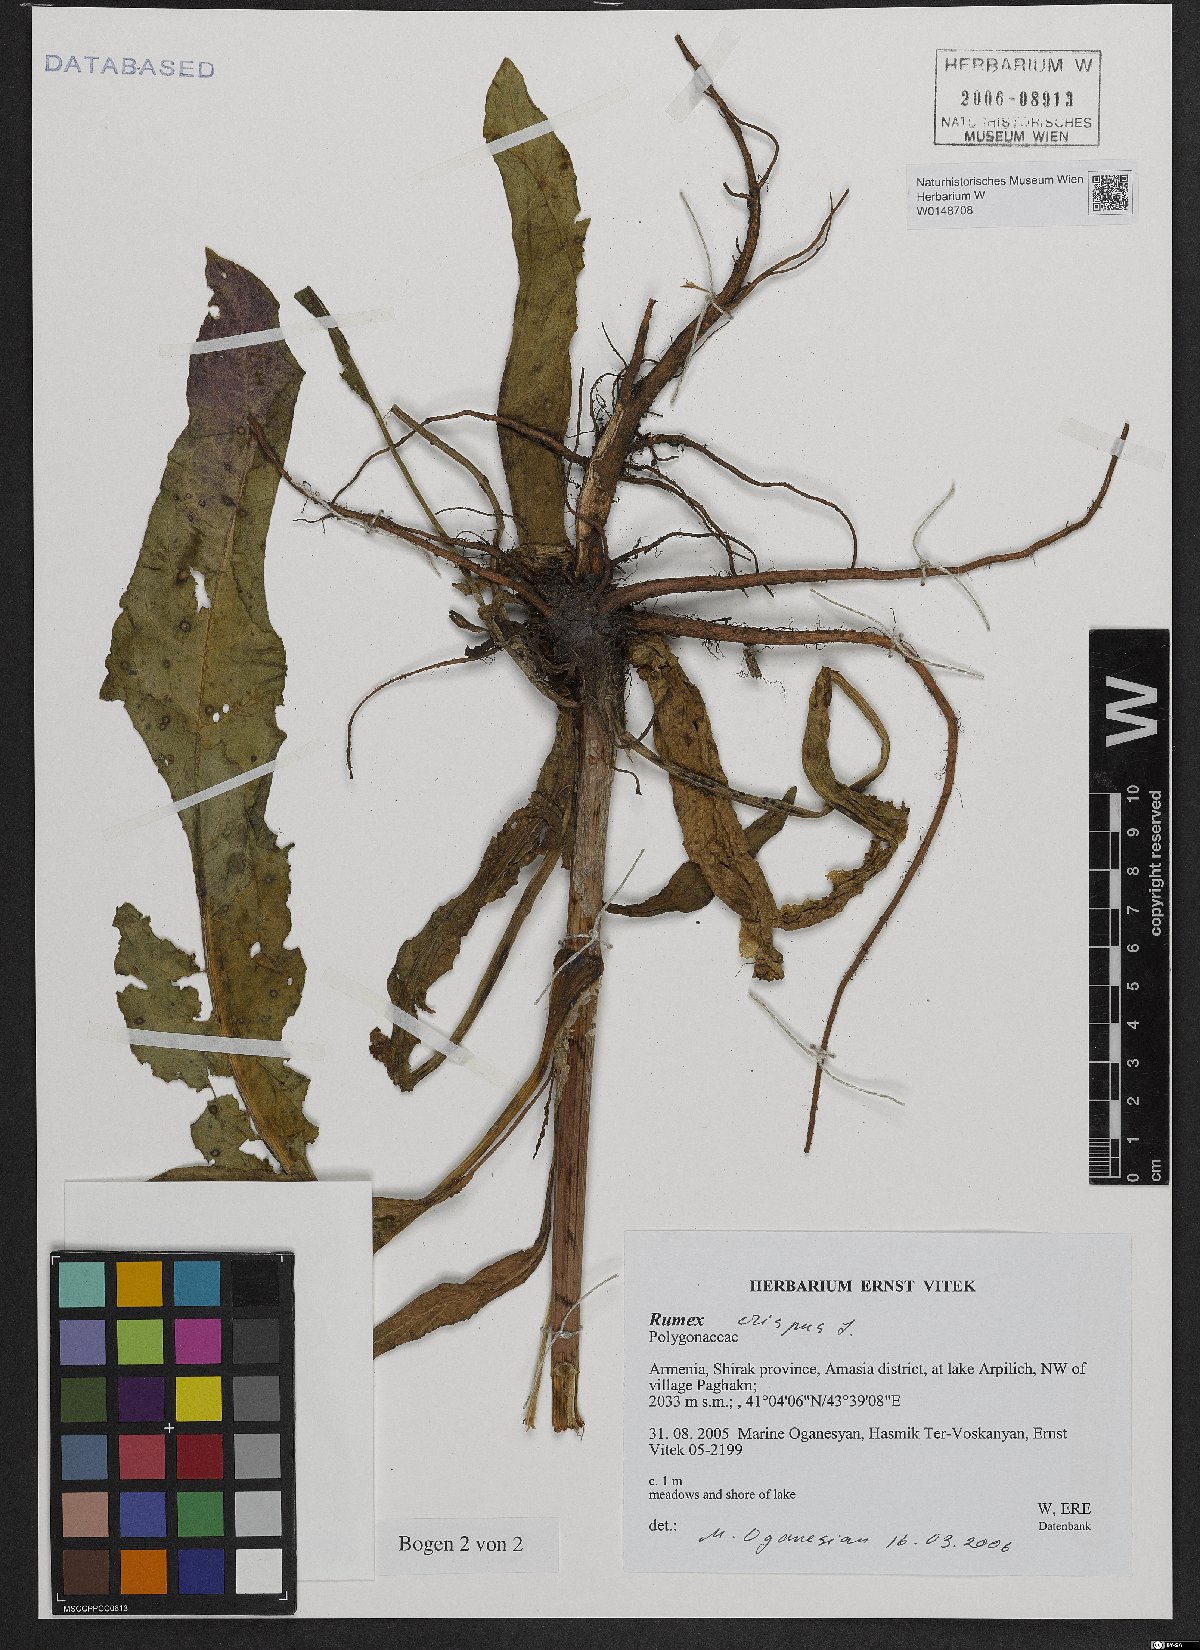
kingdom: Plantae
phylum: Tracheophyta
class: Magnoliopsida
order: Caryophyllales
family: Polygonaceae
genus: Rumex
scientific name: Rumex crispus
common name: Curled dock
